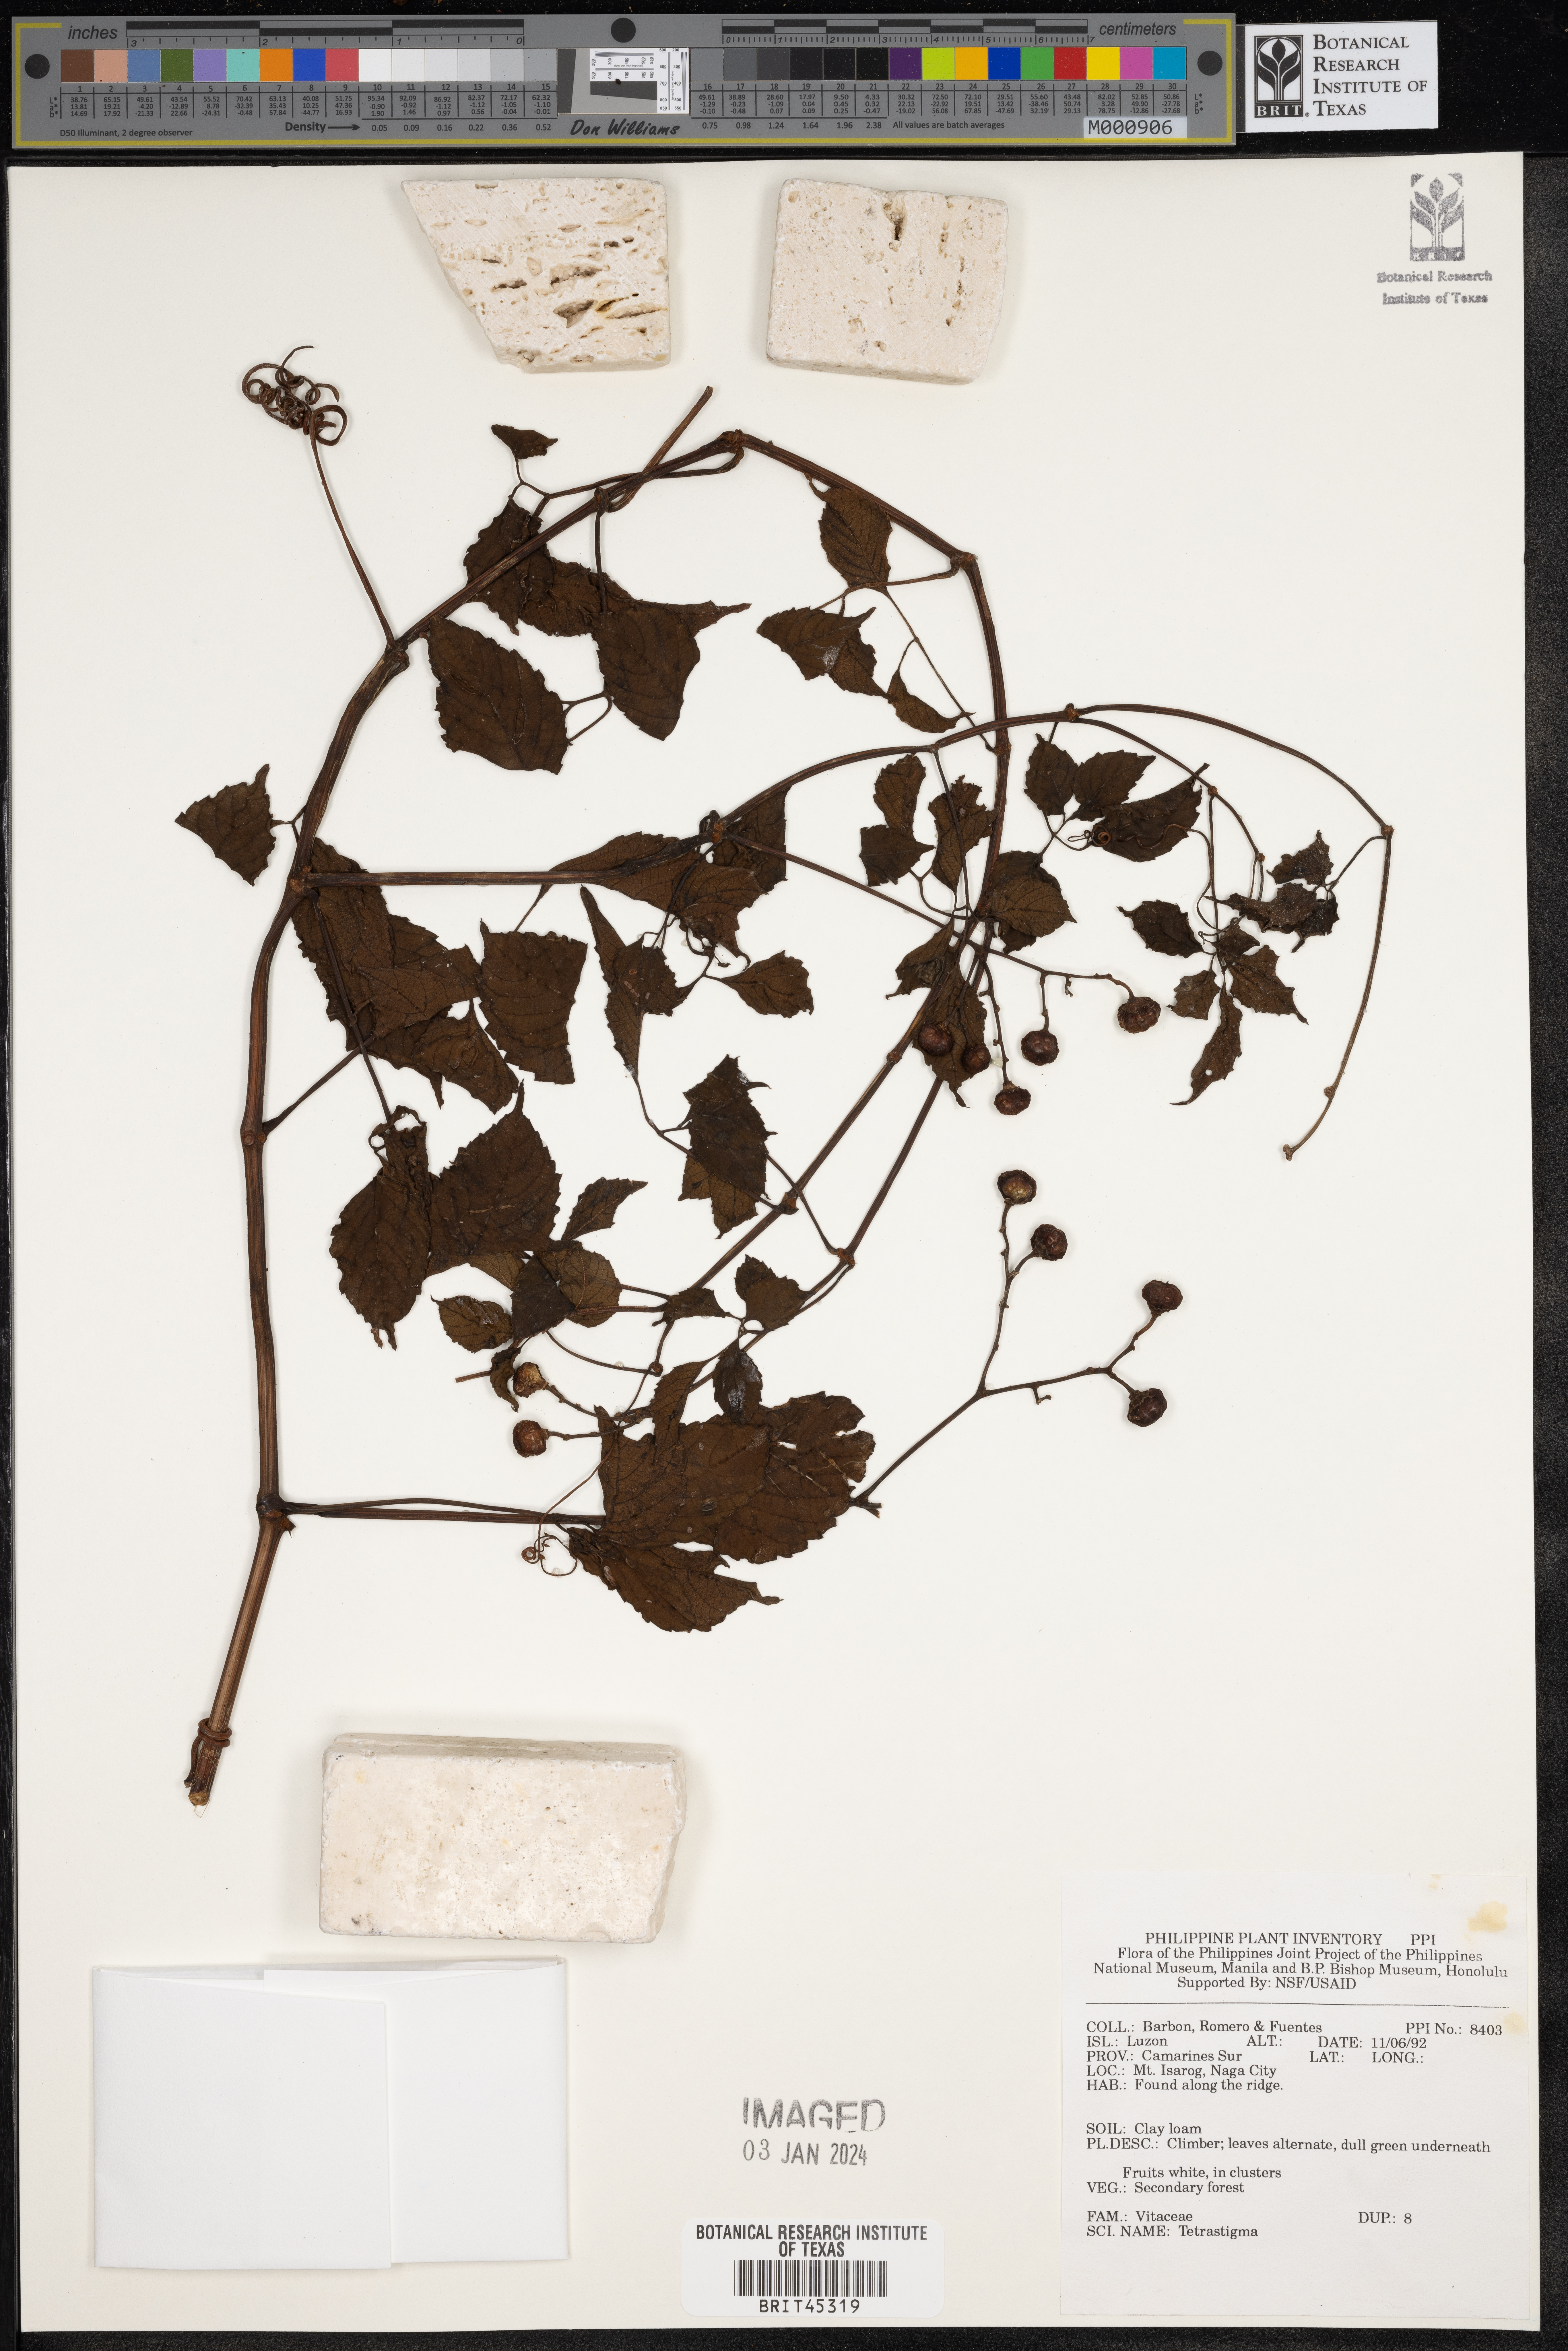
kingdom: Plantae
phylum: Tracheophyta
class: Magnoliopsida
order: Vitales
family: Vitaceae
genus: Tetrastigma
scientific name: Tetrastigma
